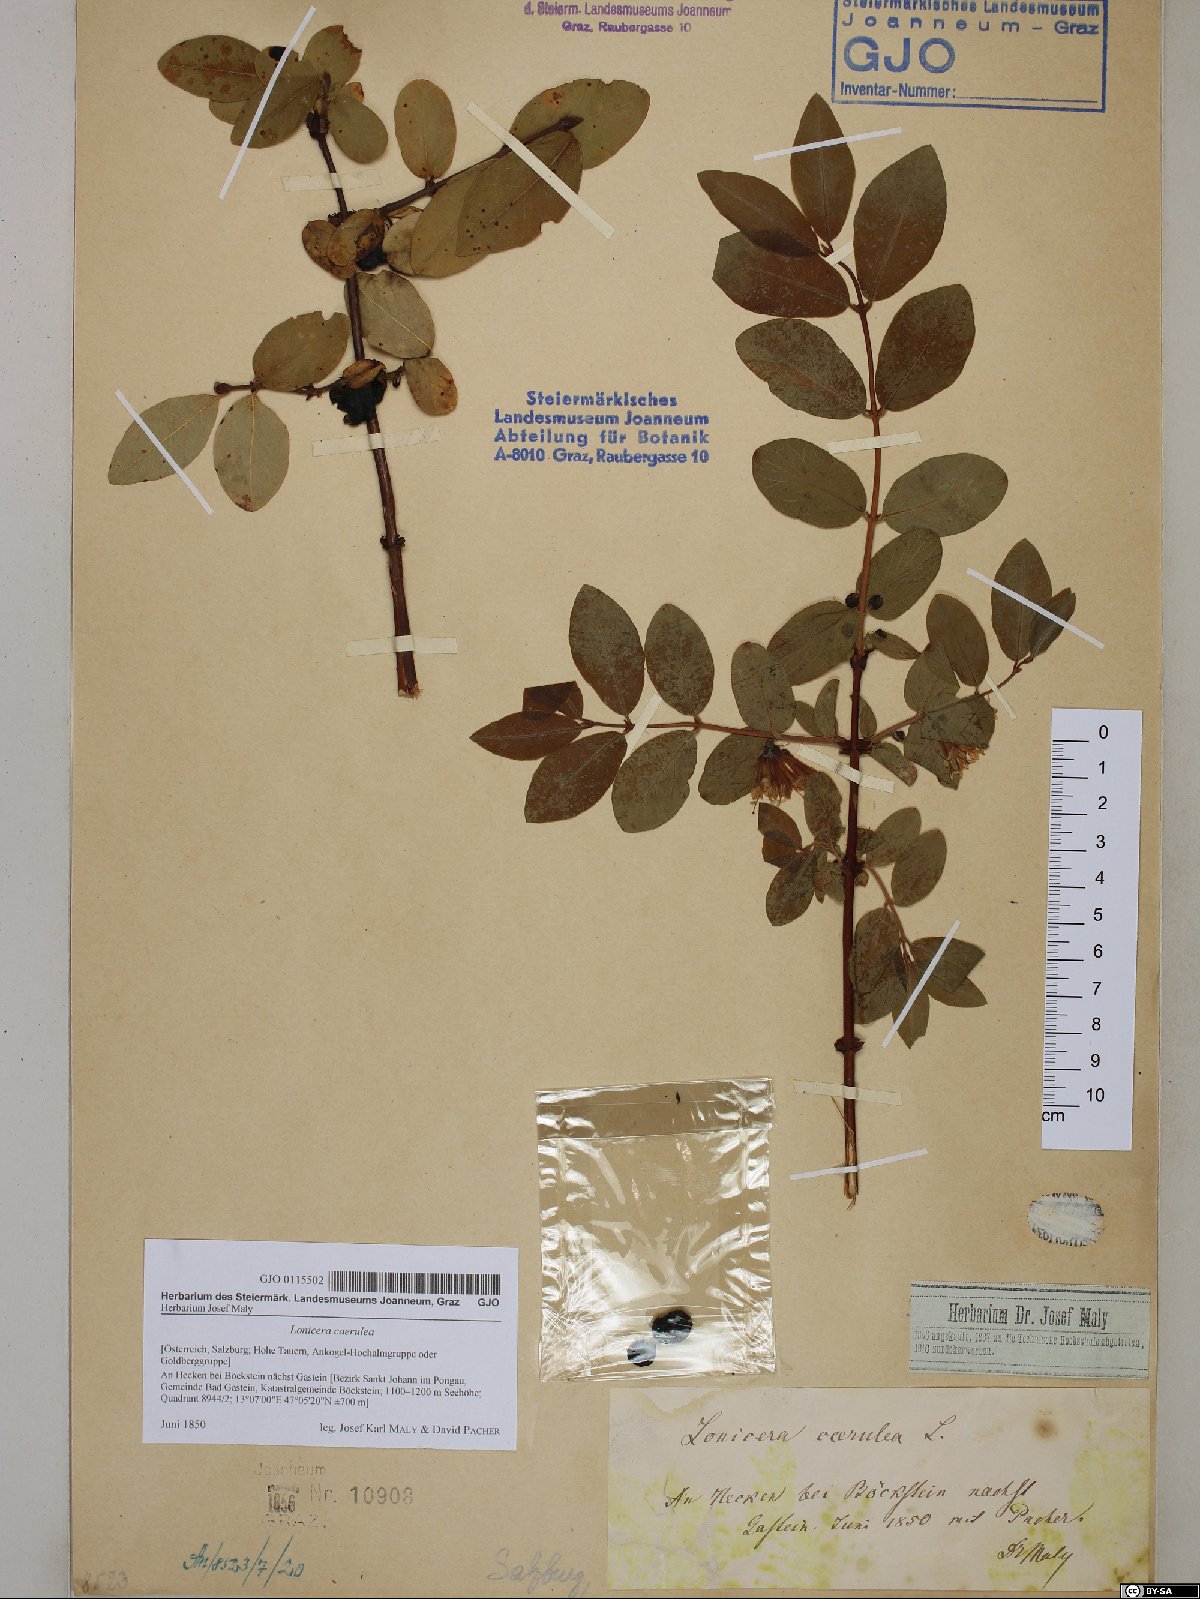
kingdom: Plantae
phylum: Tracheophyta
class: Magnoliopsida
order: Dipsacales
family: Caprifoliaceae
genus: Lonicera
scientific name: Lonicera caerulea
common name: Blue honeysuckle
